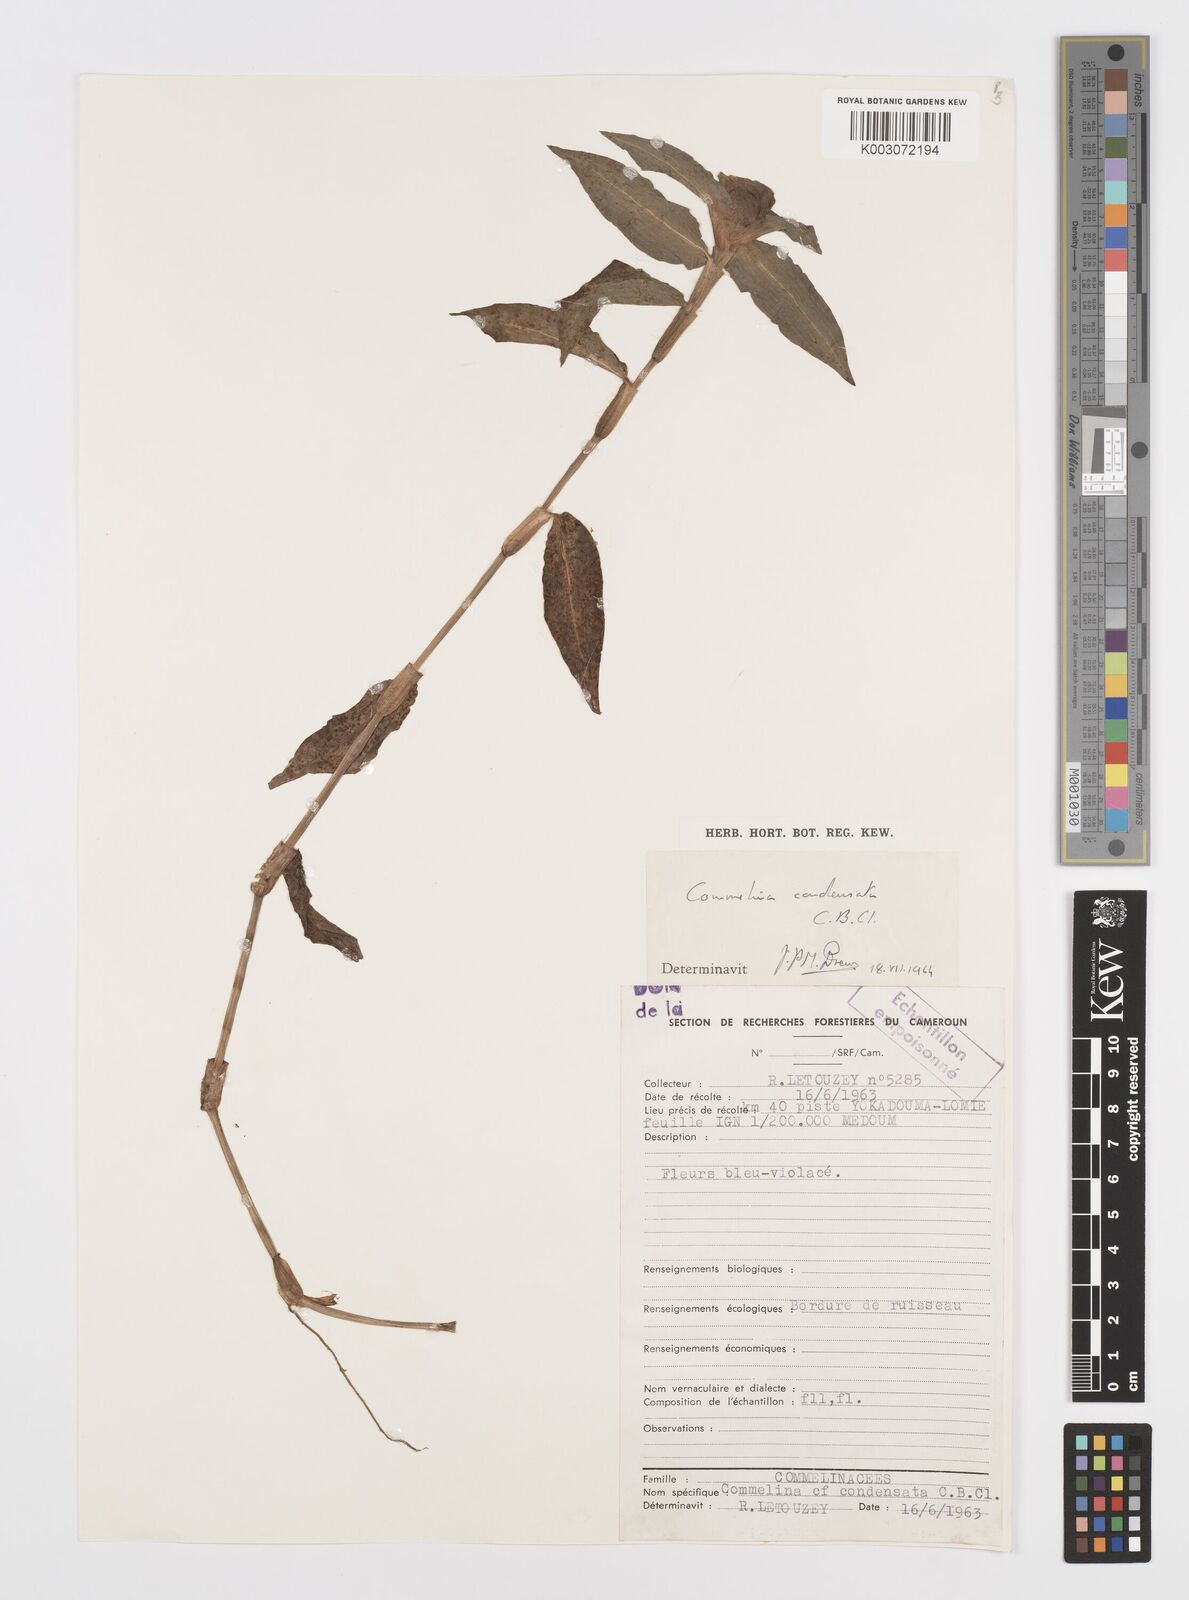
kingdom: Plantae
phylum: Tracheophyta
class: Liliopsida
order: Commelinales
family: Commelinaceae
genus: Commelina
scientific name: Commelina congesta
